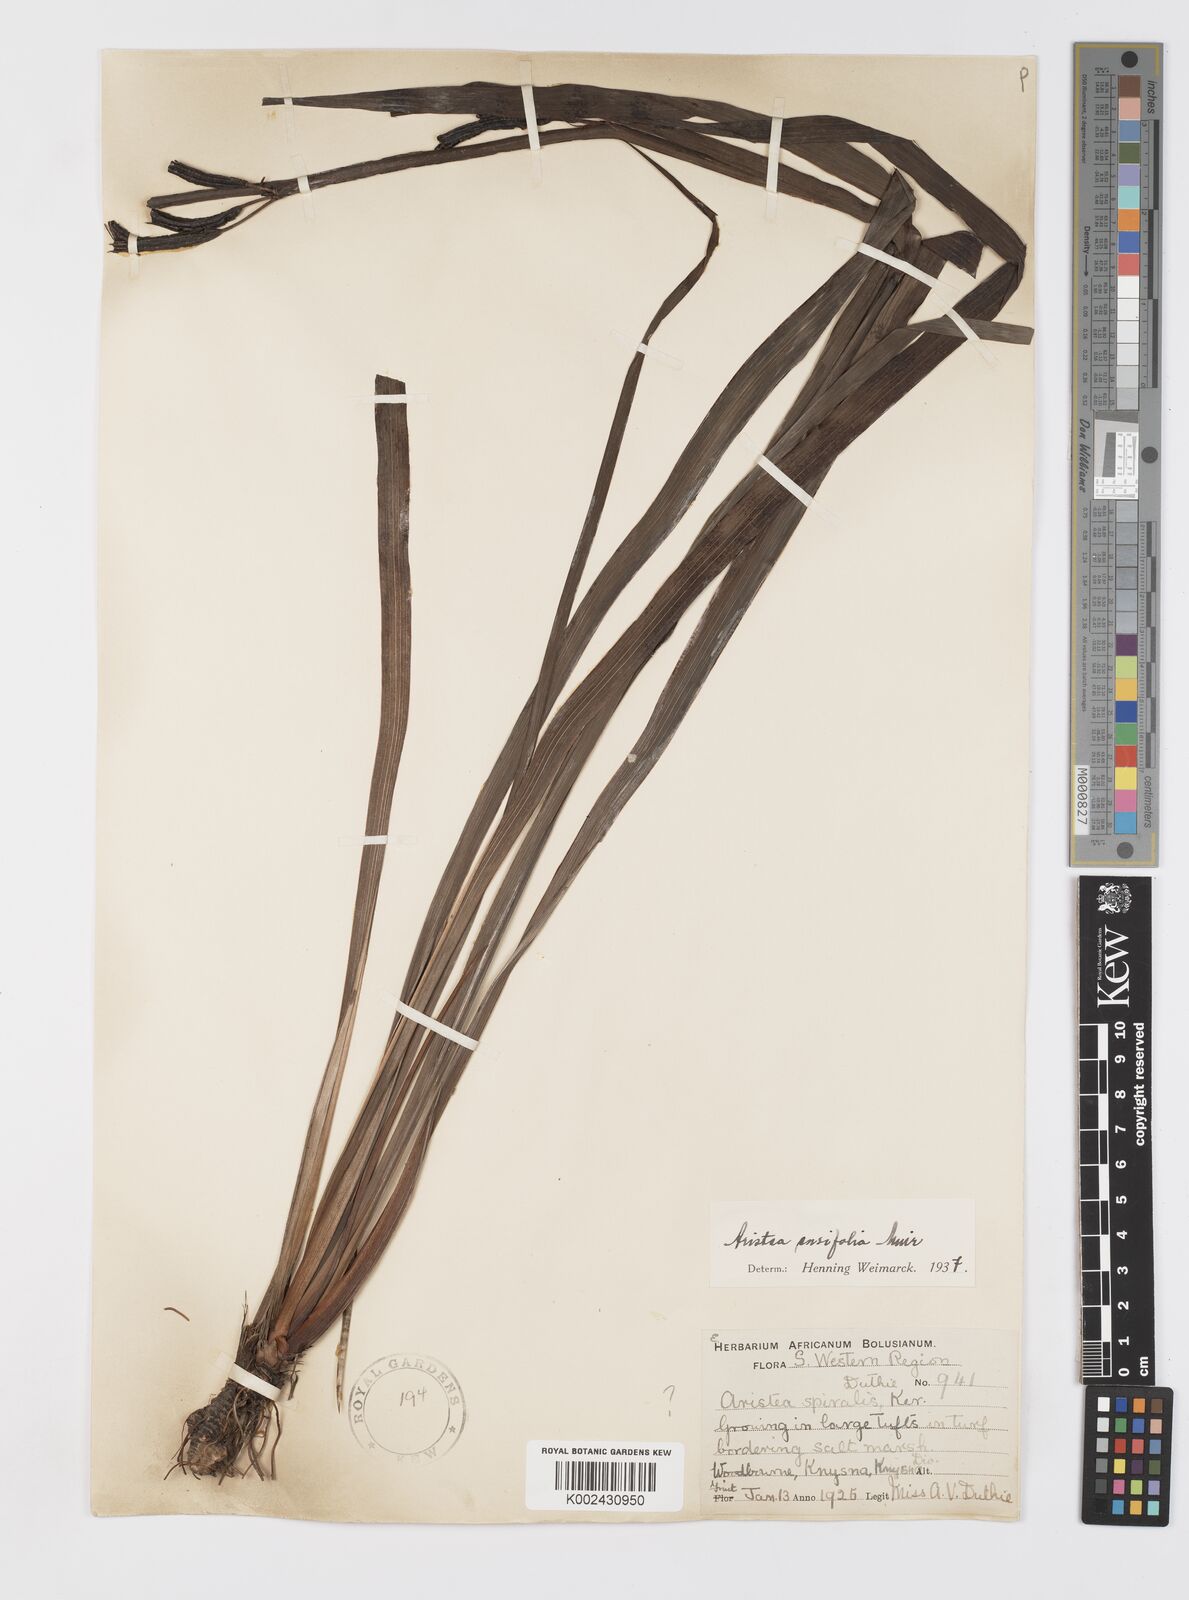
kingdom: Plantae
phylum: Tracheophyta
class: Liliopsida
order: Asparagales
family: Iridaceae
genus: Aristea
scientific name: Aristea ensifolia
